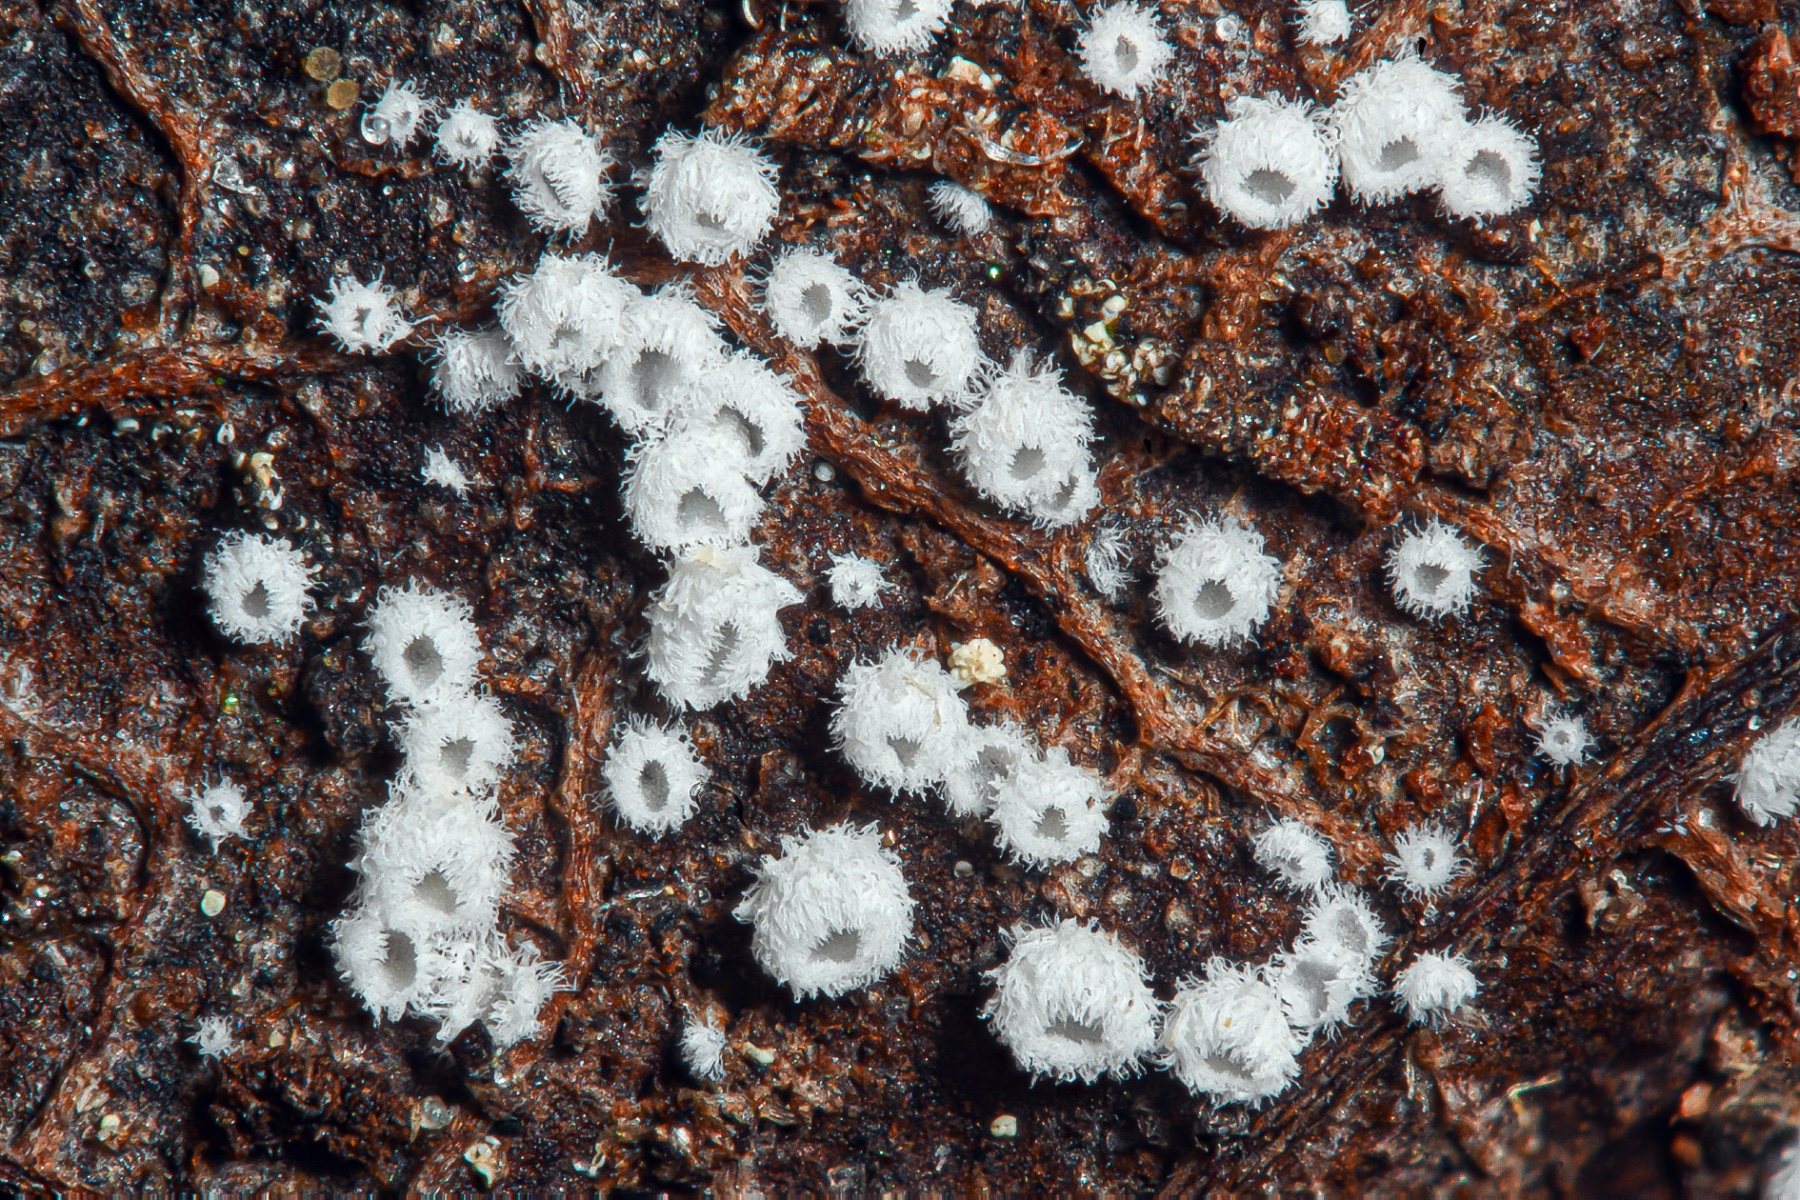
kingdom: Fungi
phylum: Basidiomycota
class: Agaricomycetes
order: Agaricales
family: Niaceae
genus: Flagelloscypha
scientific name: Flagelloscypha faginea
